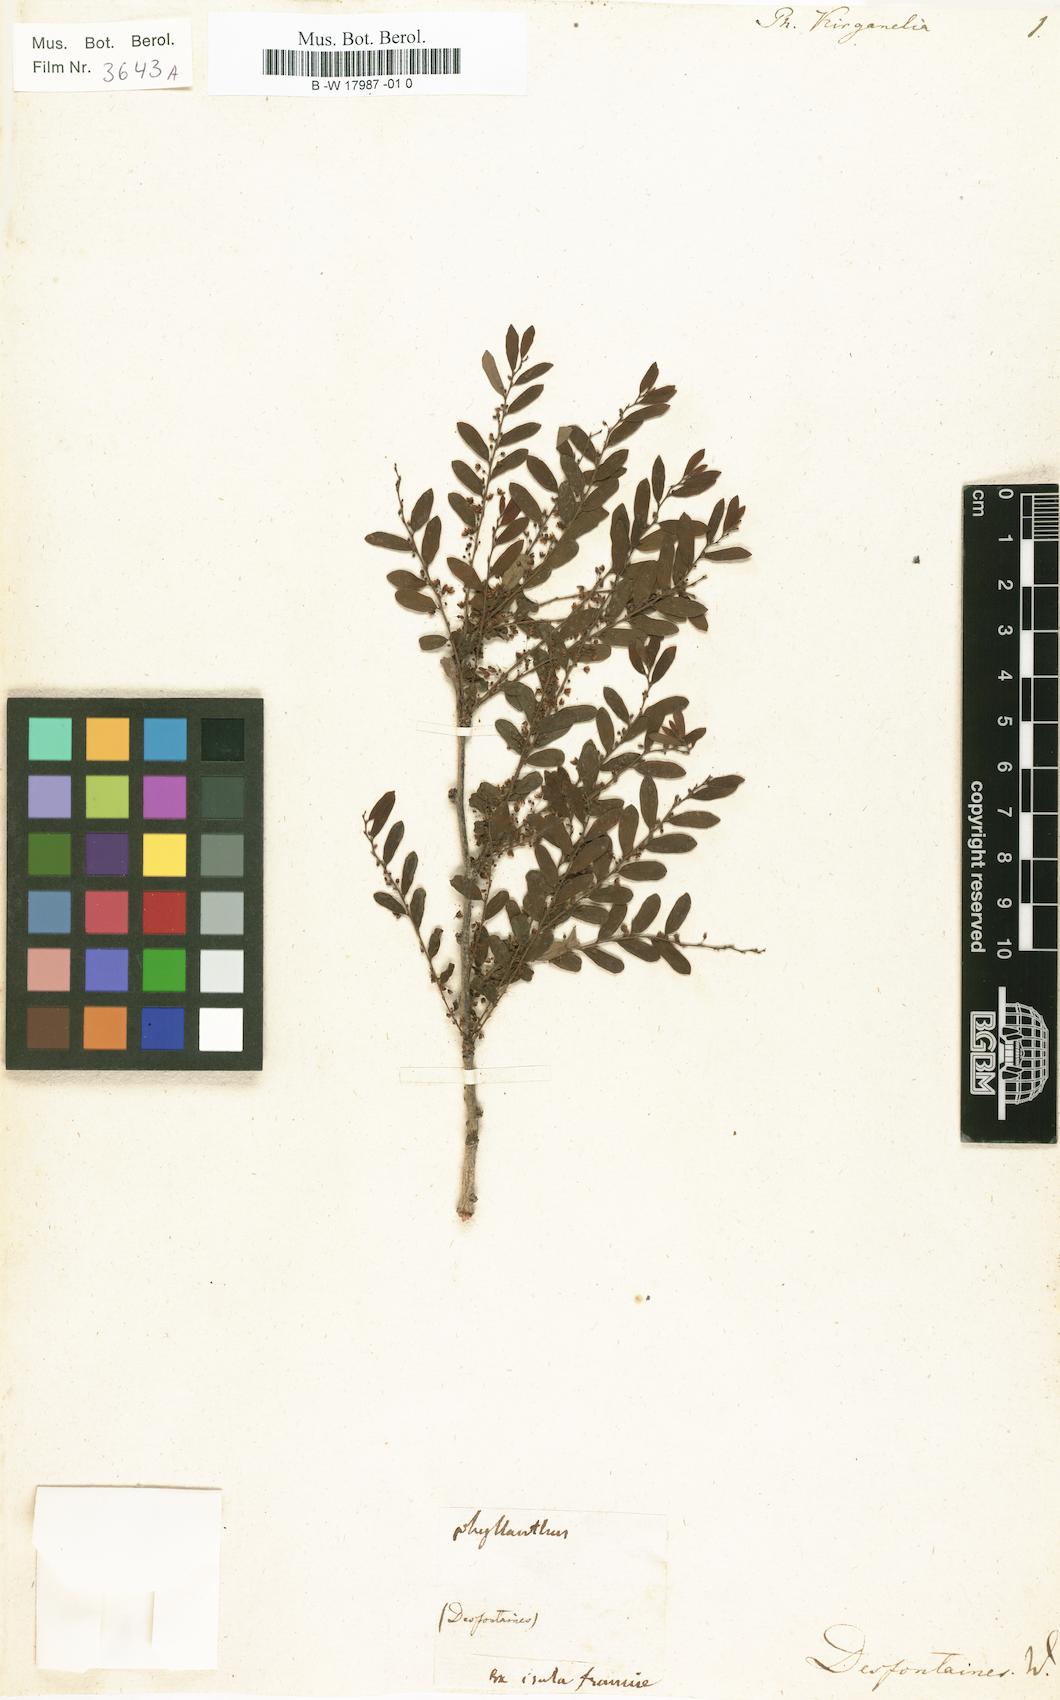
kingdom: Plantae
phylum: Tracheophyta
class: Magnoliopsida
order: Malpighiales
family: Phyllanthaceae
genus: Phyllanthus
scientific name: Phyllanthus kirganelia
